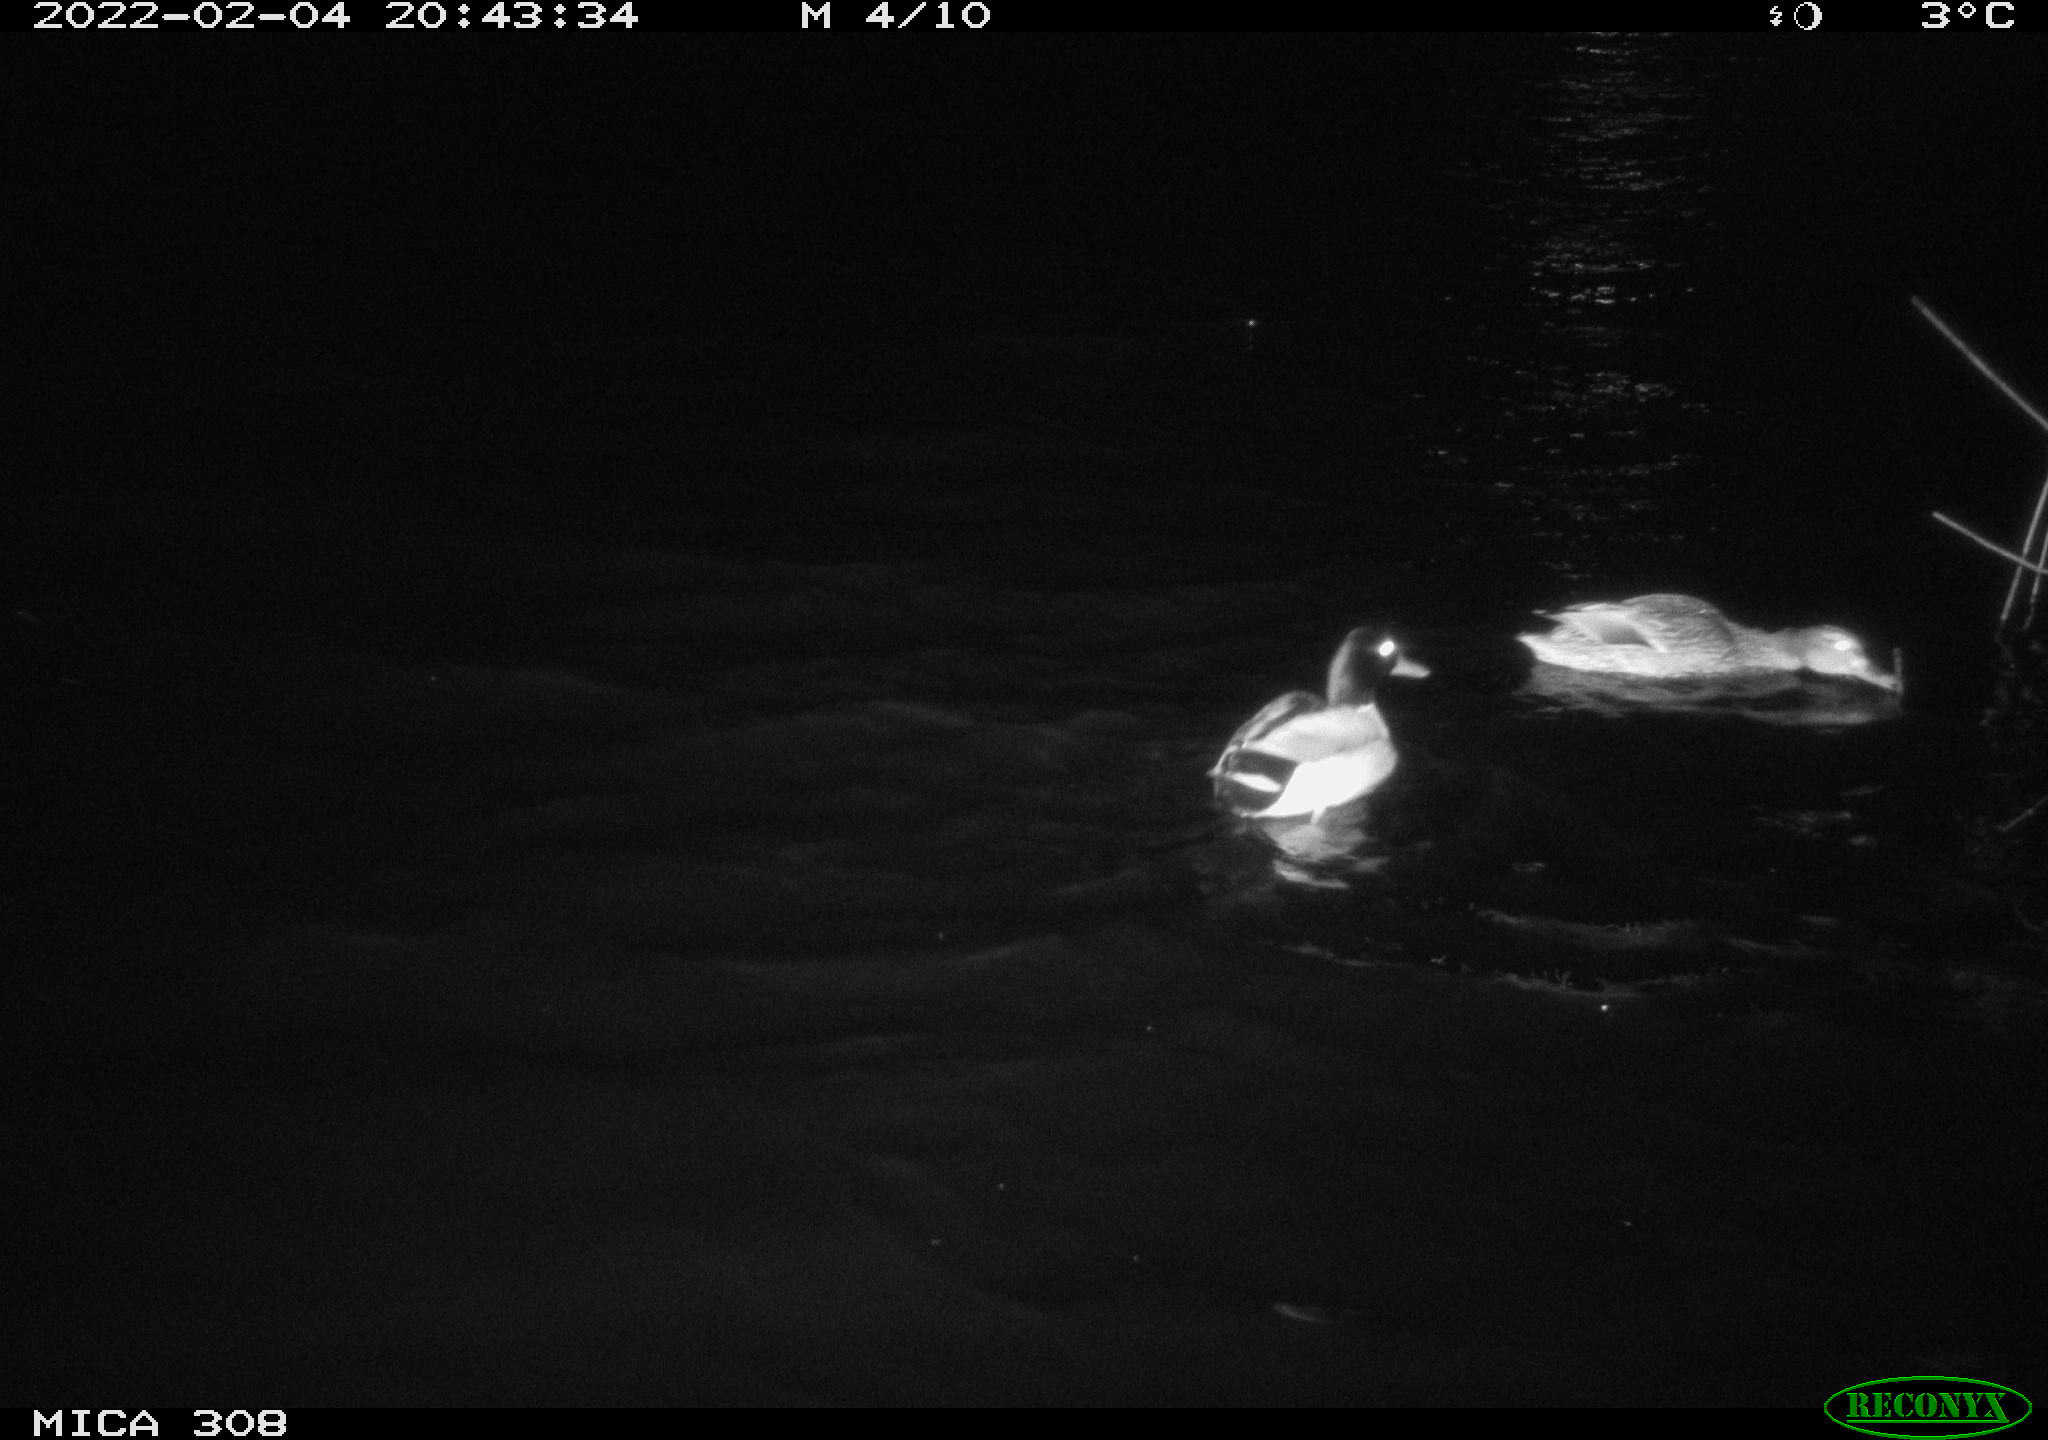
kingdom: Animalia
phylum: Chordata
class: Aves
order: Anseriformes
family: Anatidae
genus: Anas
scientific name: Anas platyrhynchos
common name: Mallard
